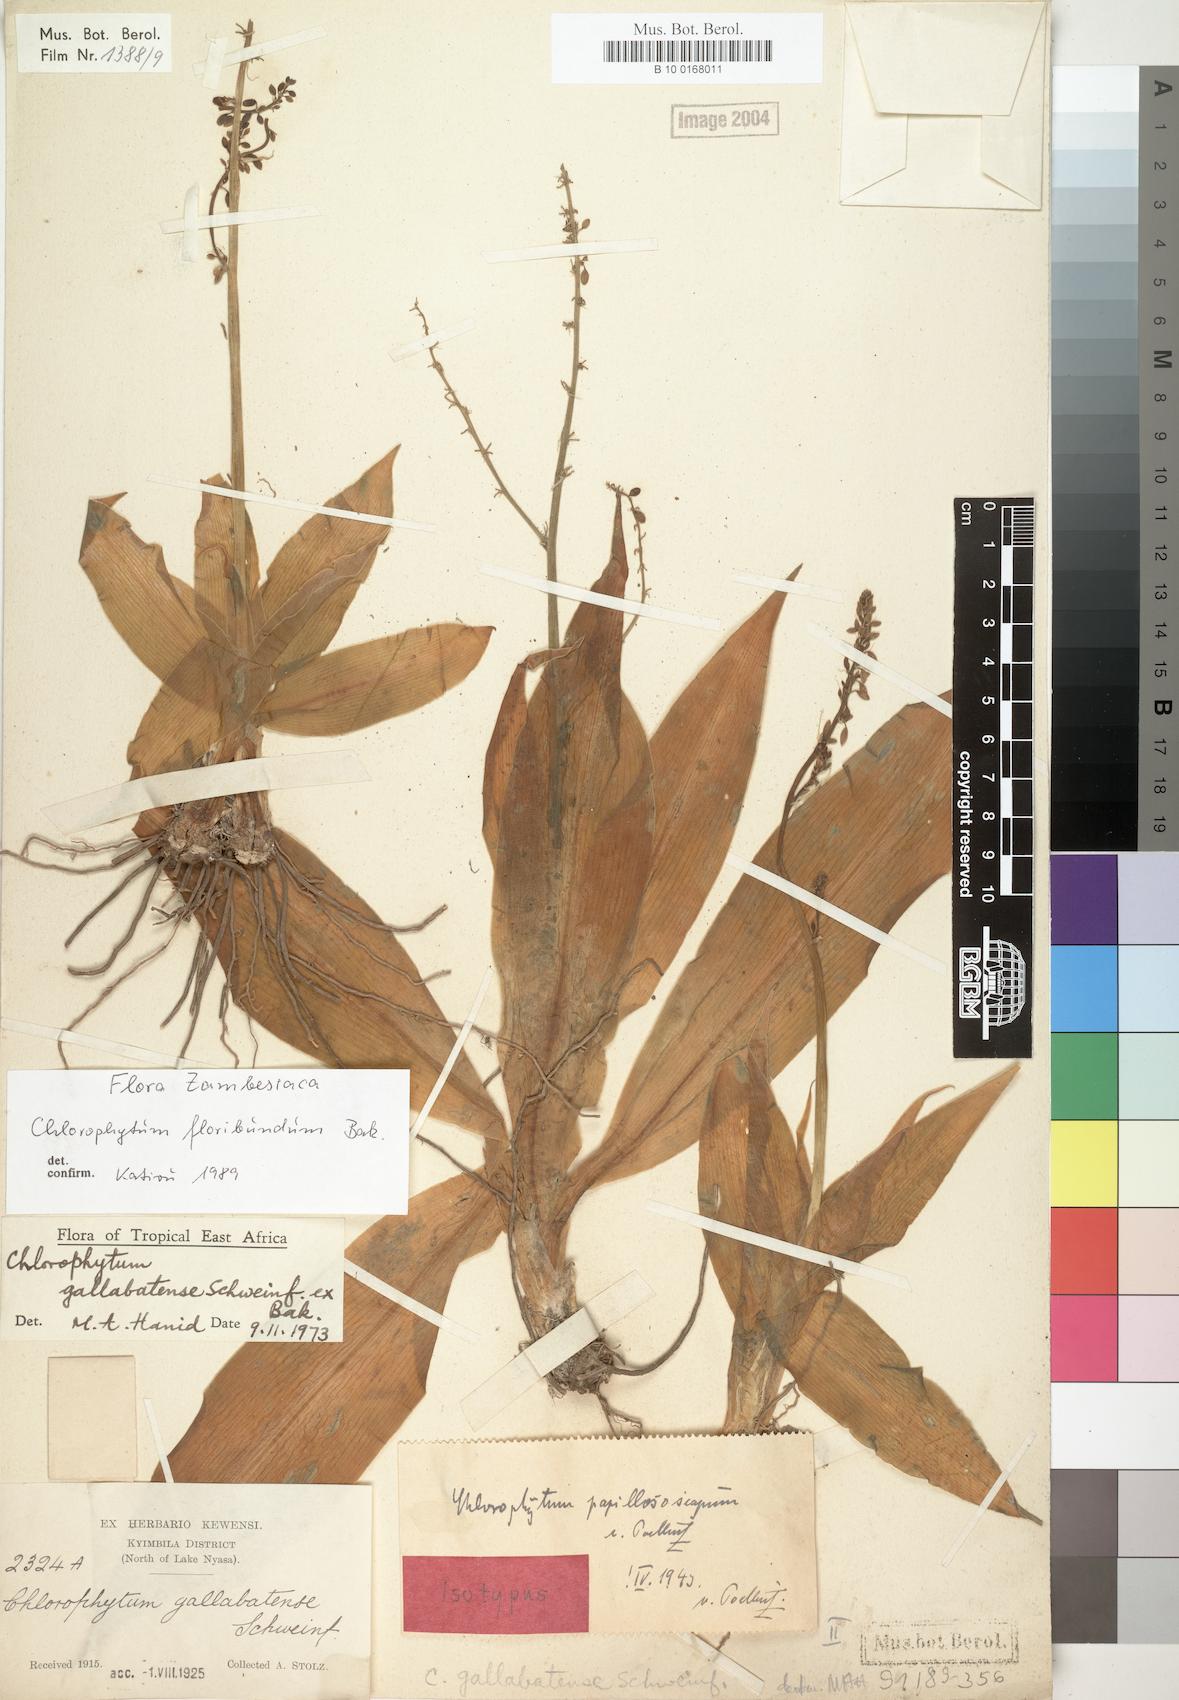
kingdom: Plantae
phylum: Tracheophyta
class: Liliopsida
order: Asparagales
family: Asparagaceae
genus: Chlorophytum
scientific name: Chlorophytum gallabatense
